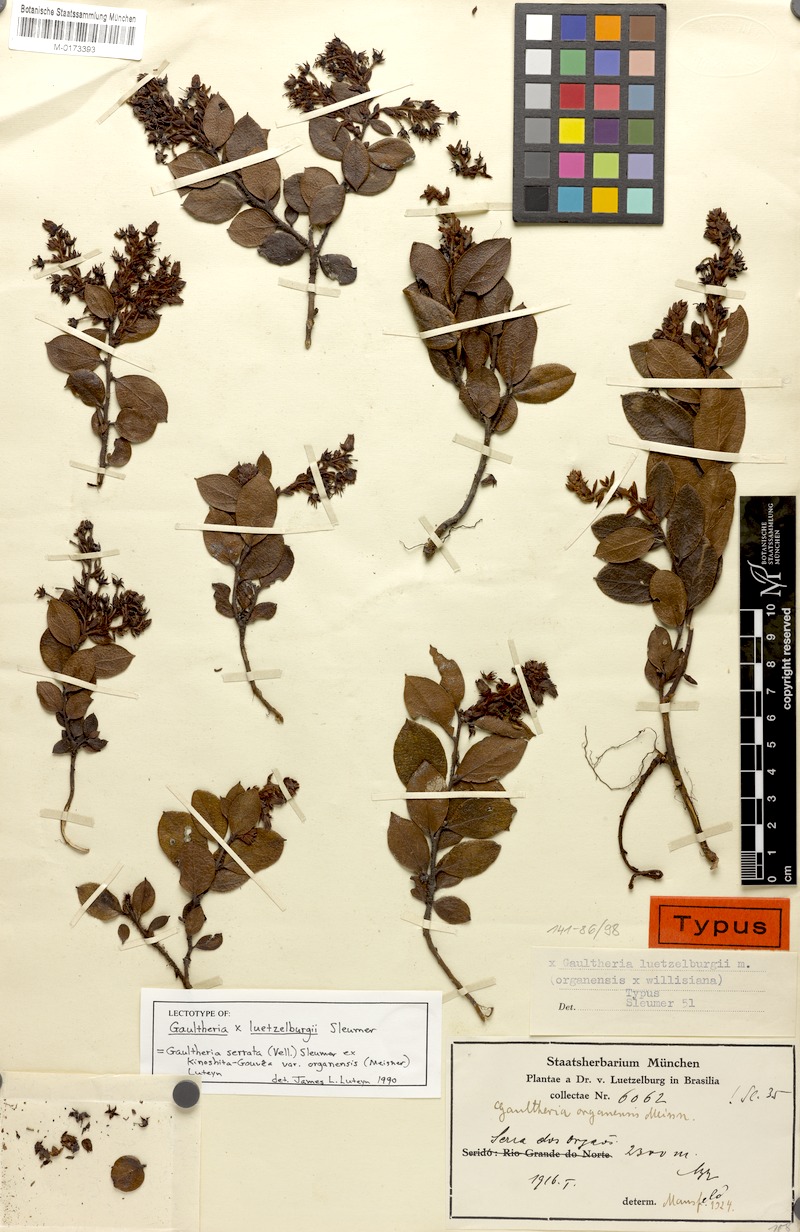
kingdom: Plantae
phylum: Tracheophyta
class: Magnoliopsida
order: Ericales
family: Ericaceae
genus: Gaultheria
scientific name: Gaultheria serrata
